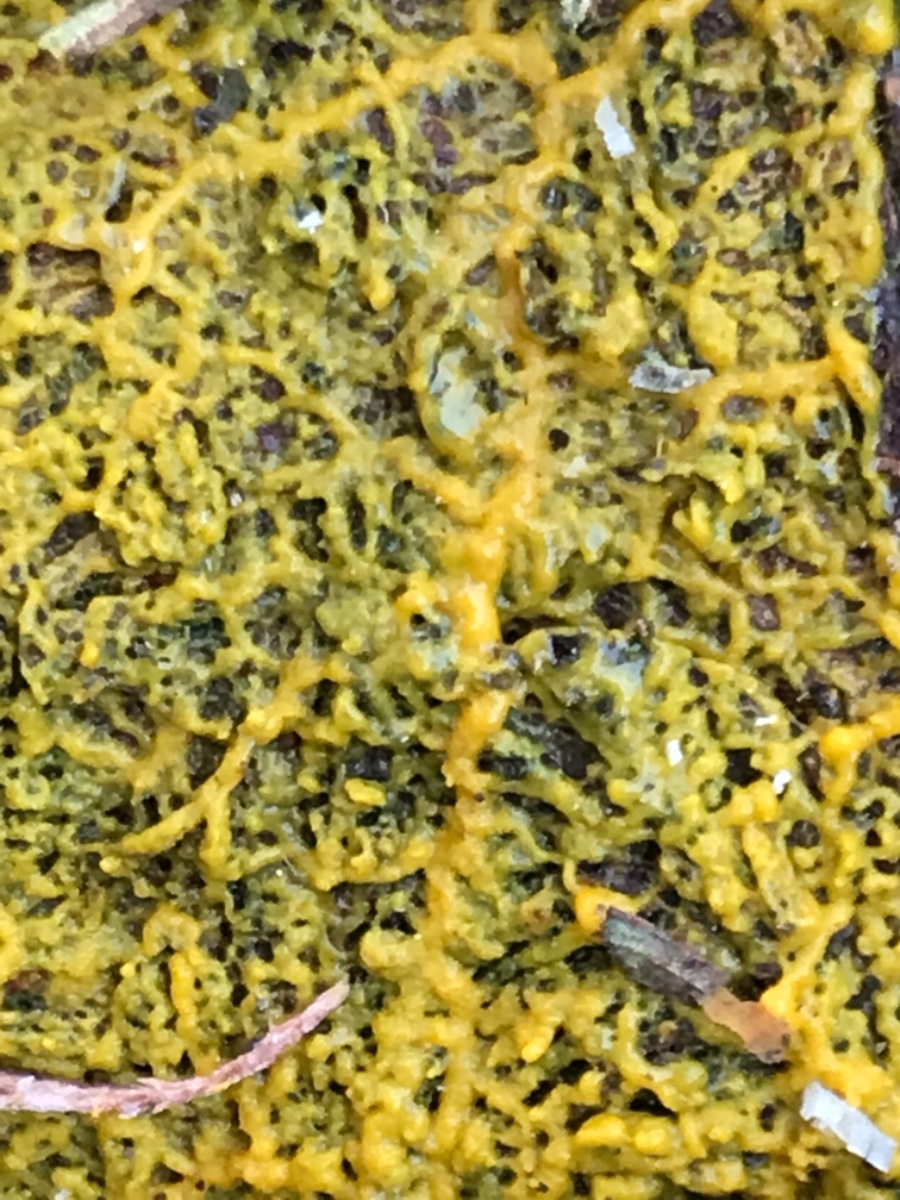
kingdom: Protozoa
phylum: Mycetozoa
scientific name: Mycetozoa
